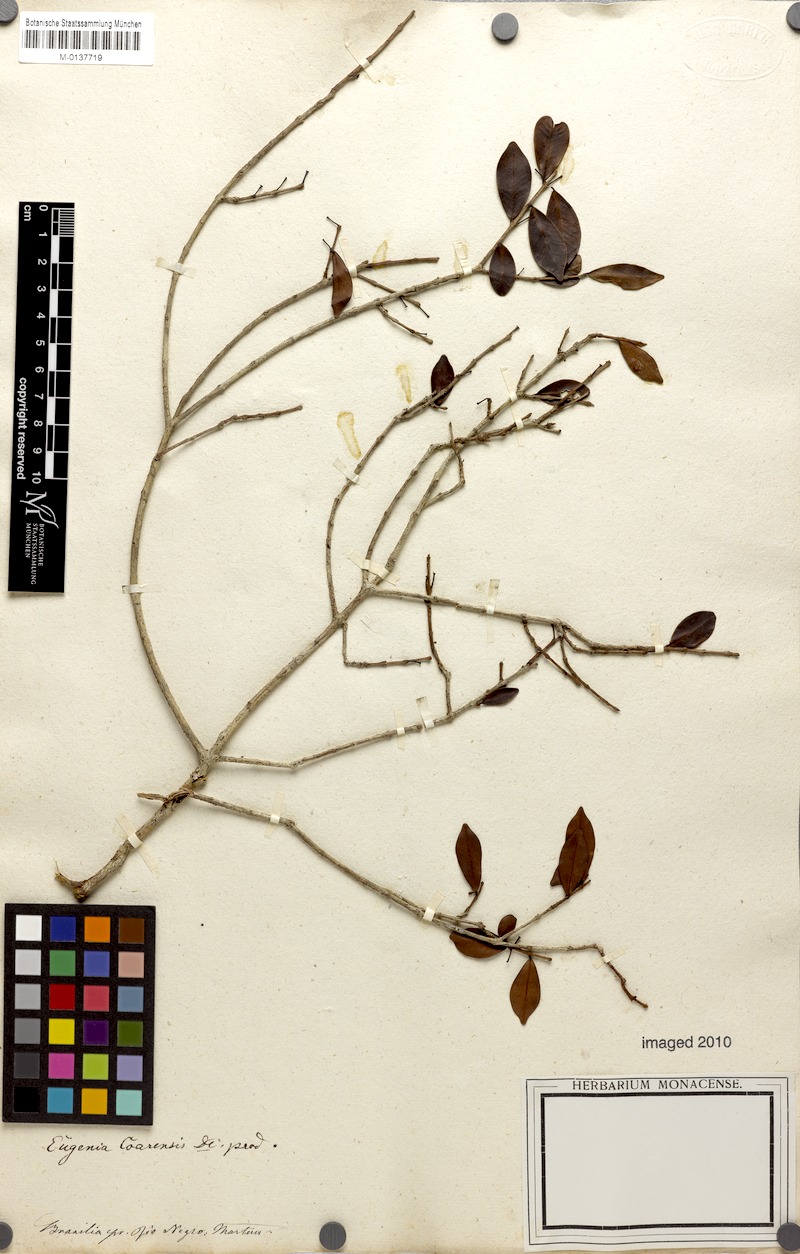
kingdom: Plantae
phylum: Tracheophyta
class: Magnoliopsida
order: Myrtales
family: Myrtaceae
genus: Eugenia
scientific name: Eugenia punicifolia
